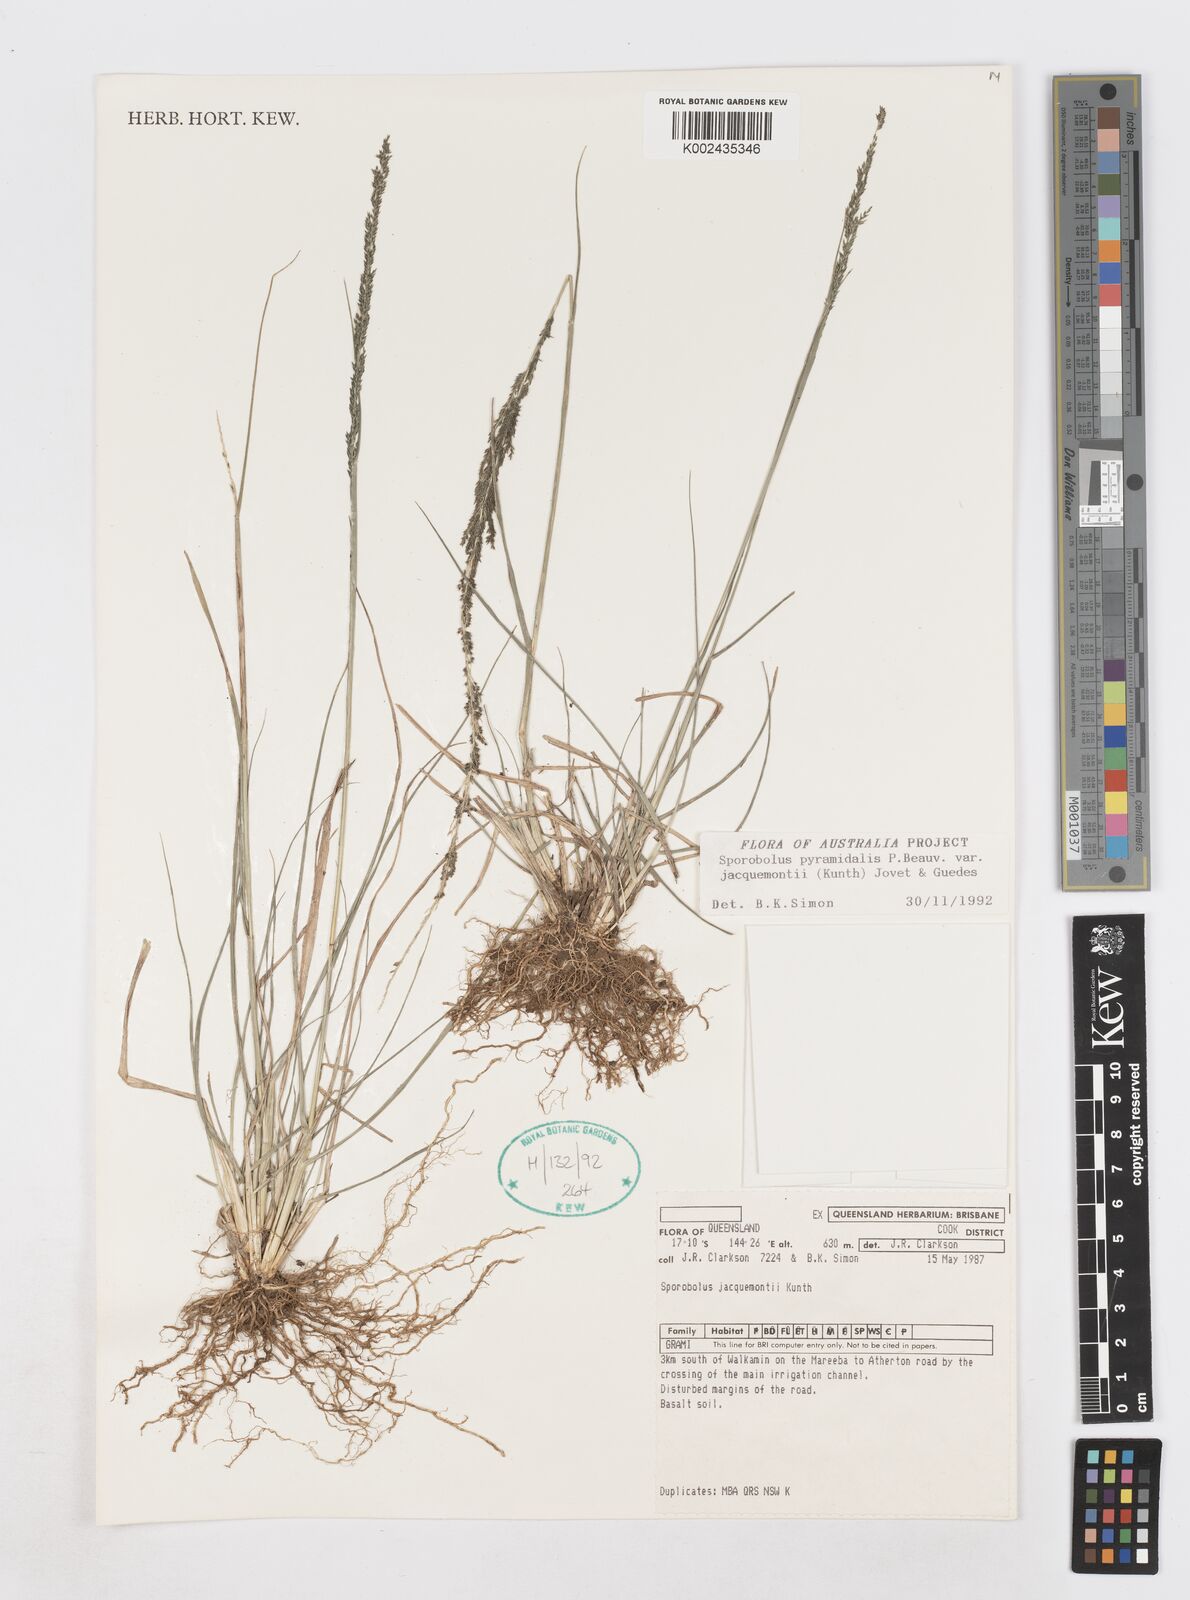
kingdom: Plantae
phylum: Tracheophyta
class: Liliopsida
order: Poales
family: Poaceae
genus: Sporobolus
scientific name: Sporobolus pyramidalis
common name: West indian dropseed
